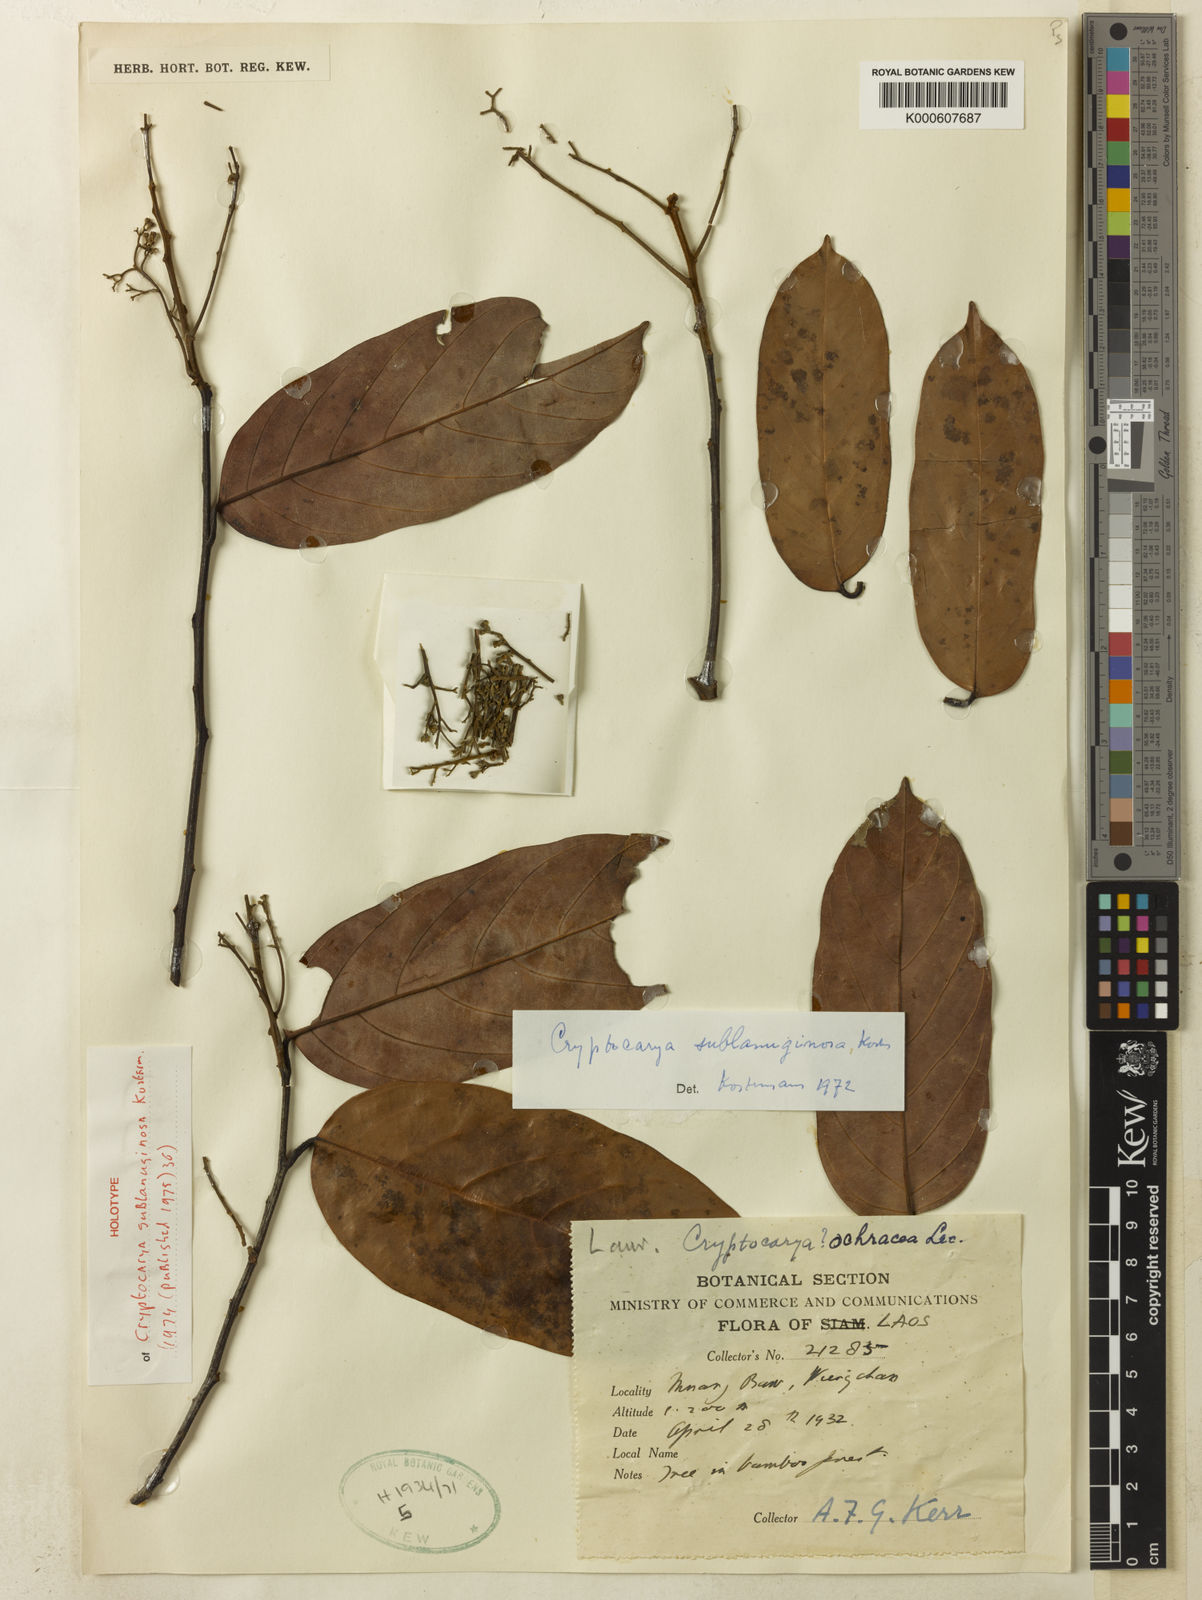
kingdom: Plantae
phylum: Tracheophyta
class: Magnoliopsida
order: Laurales
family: Lauraceae
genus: Cryptocarya
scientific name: Cryptocarya sublanuginosa
